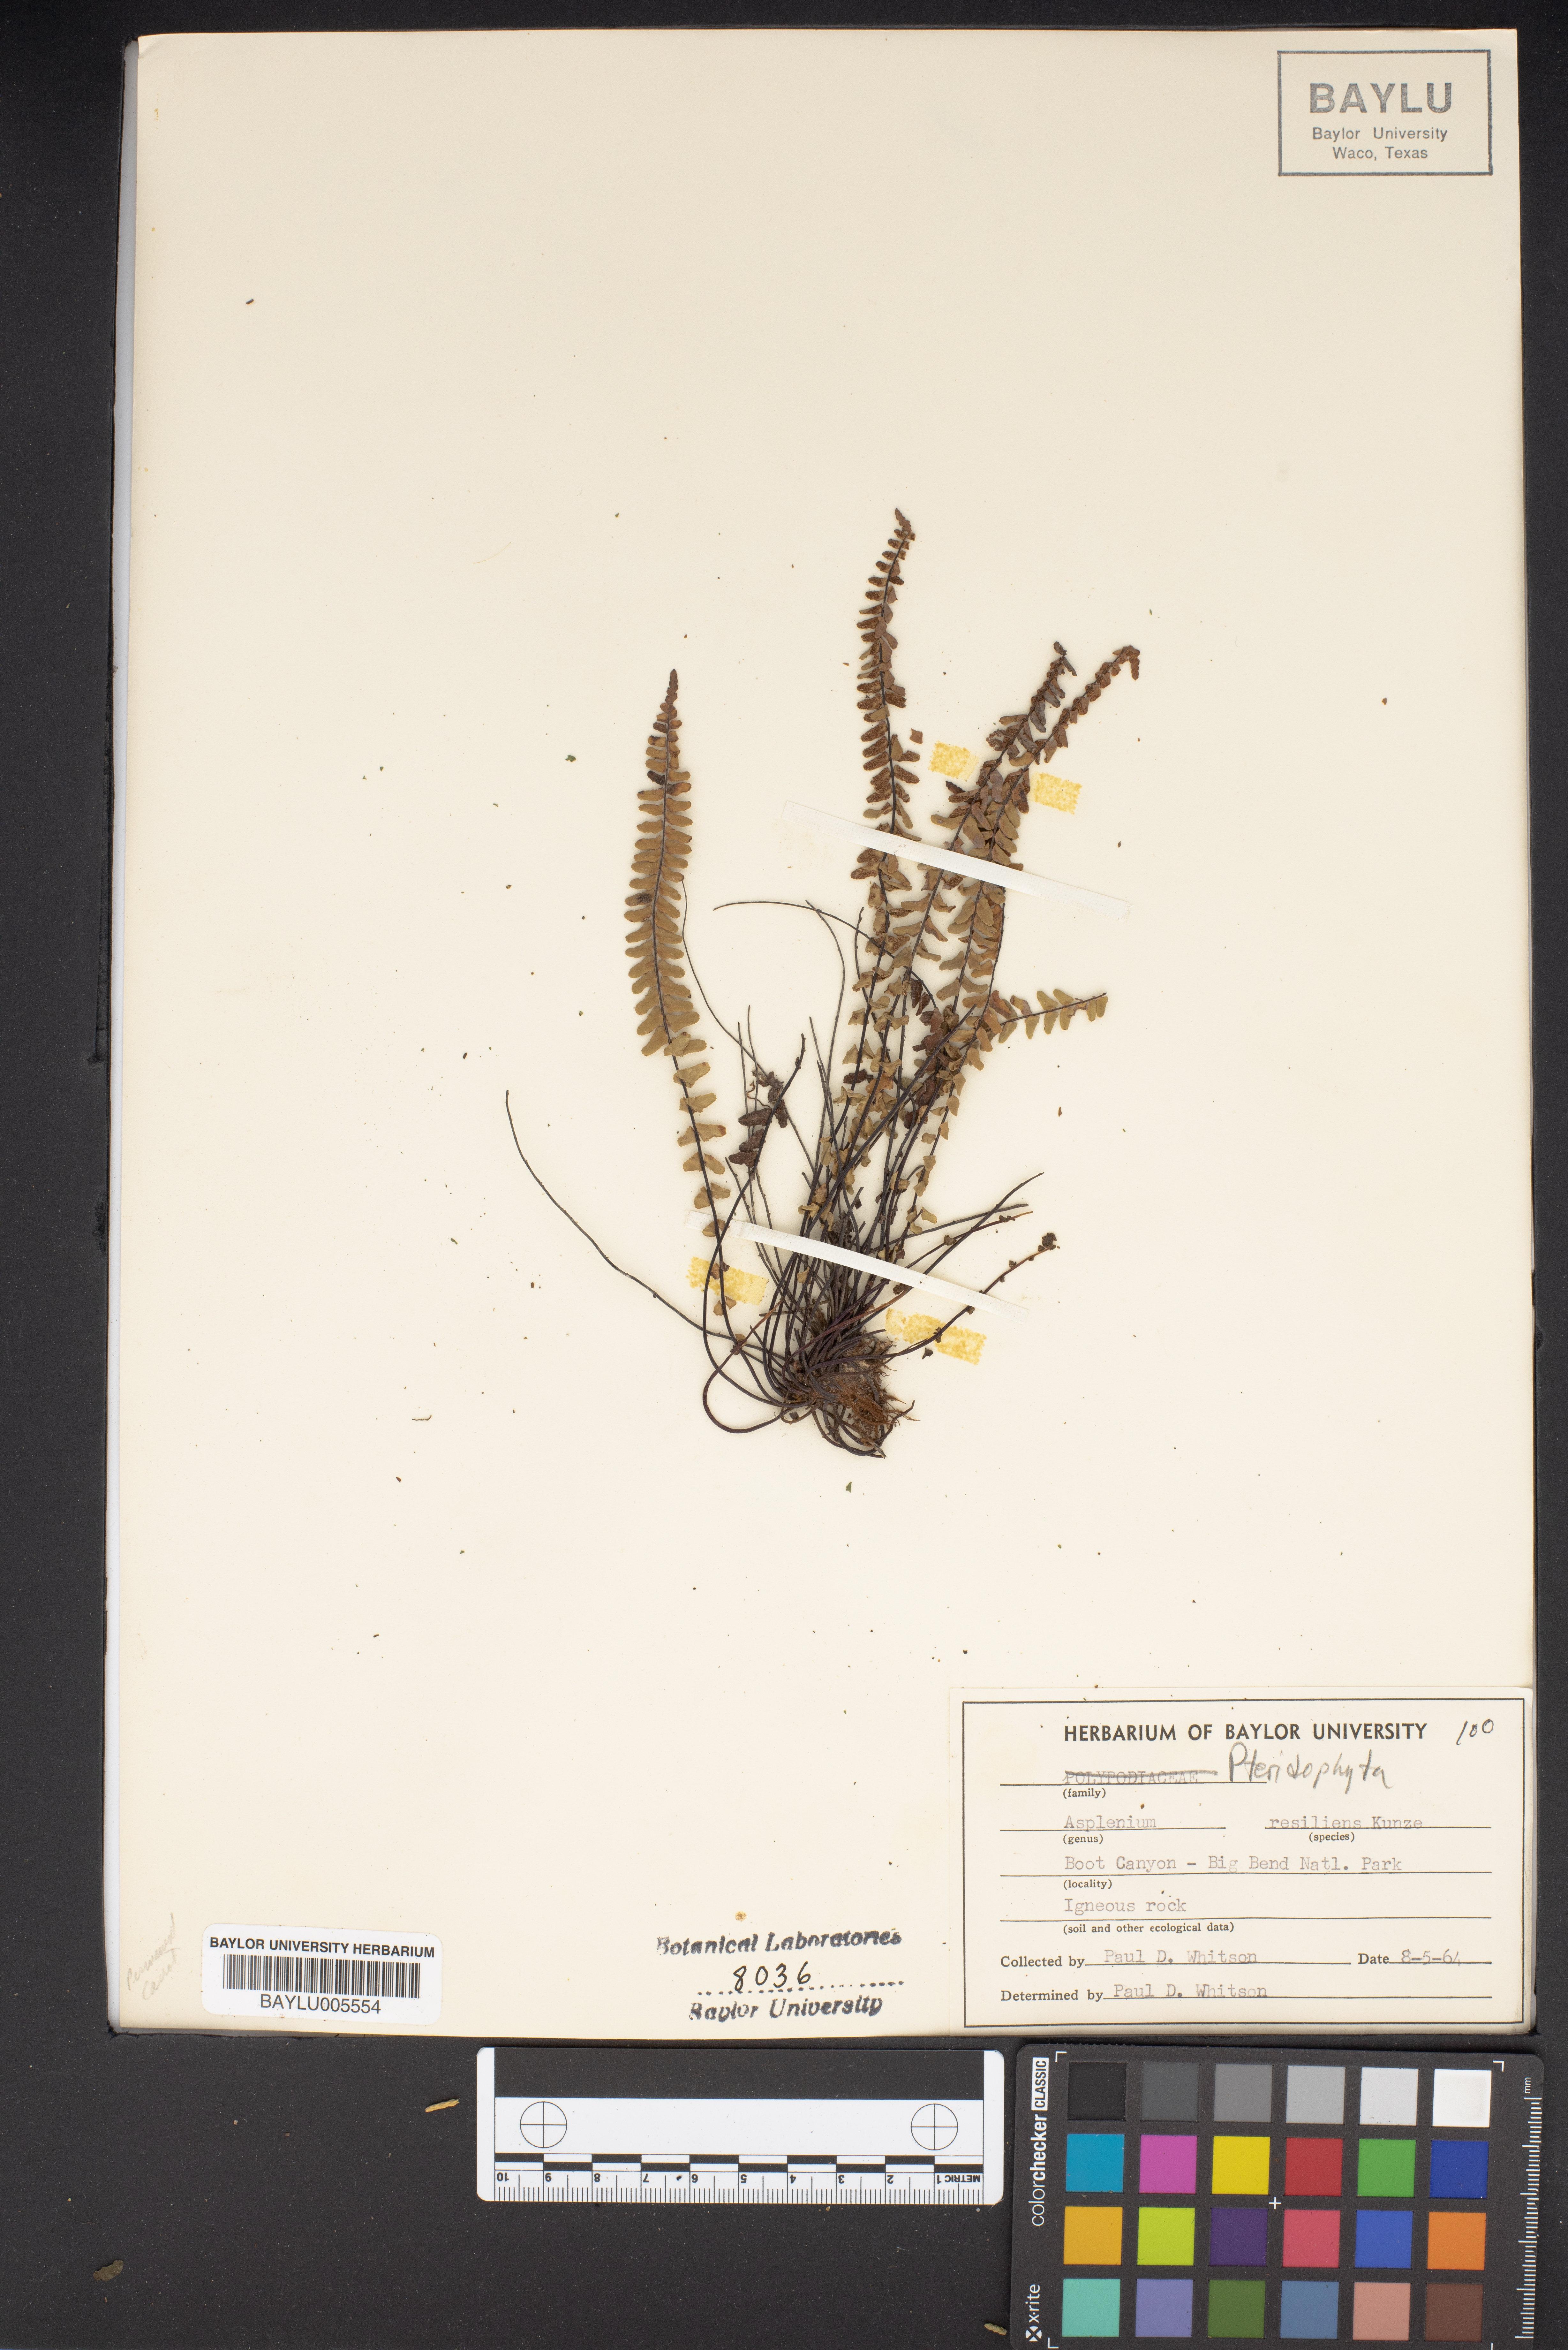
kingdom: Plantae
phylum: Tracheophyta
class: Polypodiopsida
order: Polypodiales
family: Aspleniaceae
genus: Asplenium
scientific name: Asplenium resiliens
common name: Blackstem spleenwort
